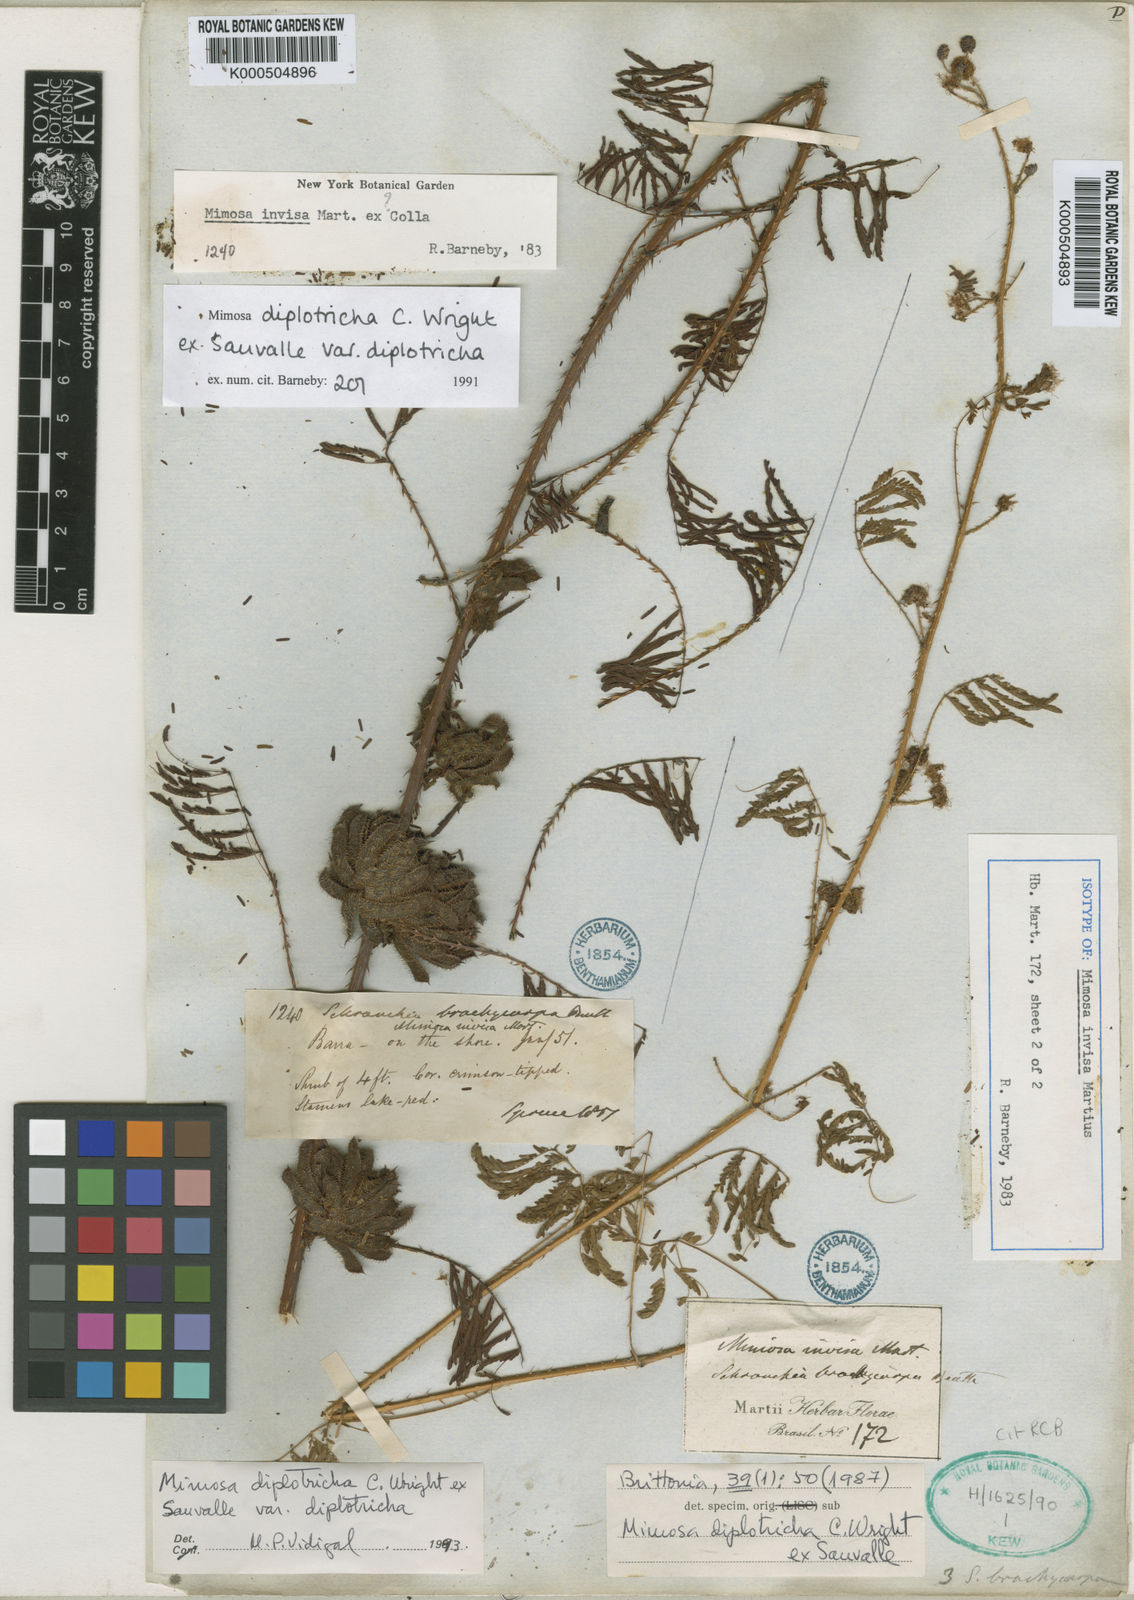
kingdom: Plantae
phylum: Tracheophyta
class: Magnoliopsida
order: Fabales
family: Fabaceae
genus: Mimosa
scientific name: Mimosa diplotricha
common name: Giant sensitive-plant
